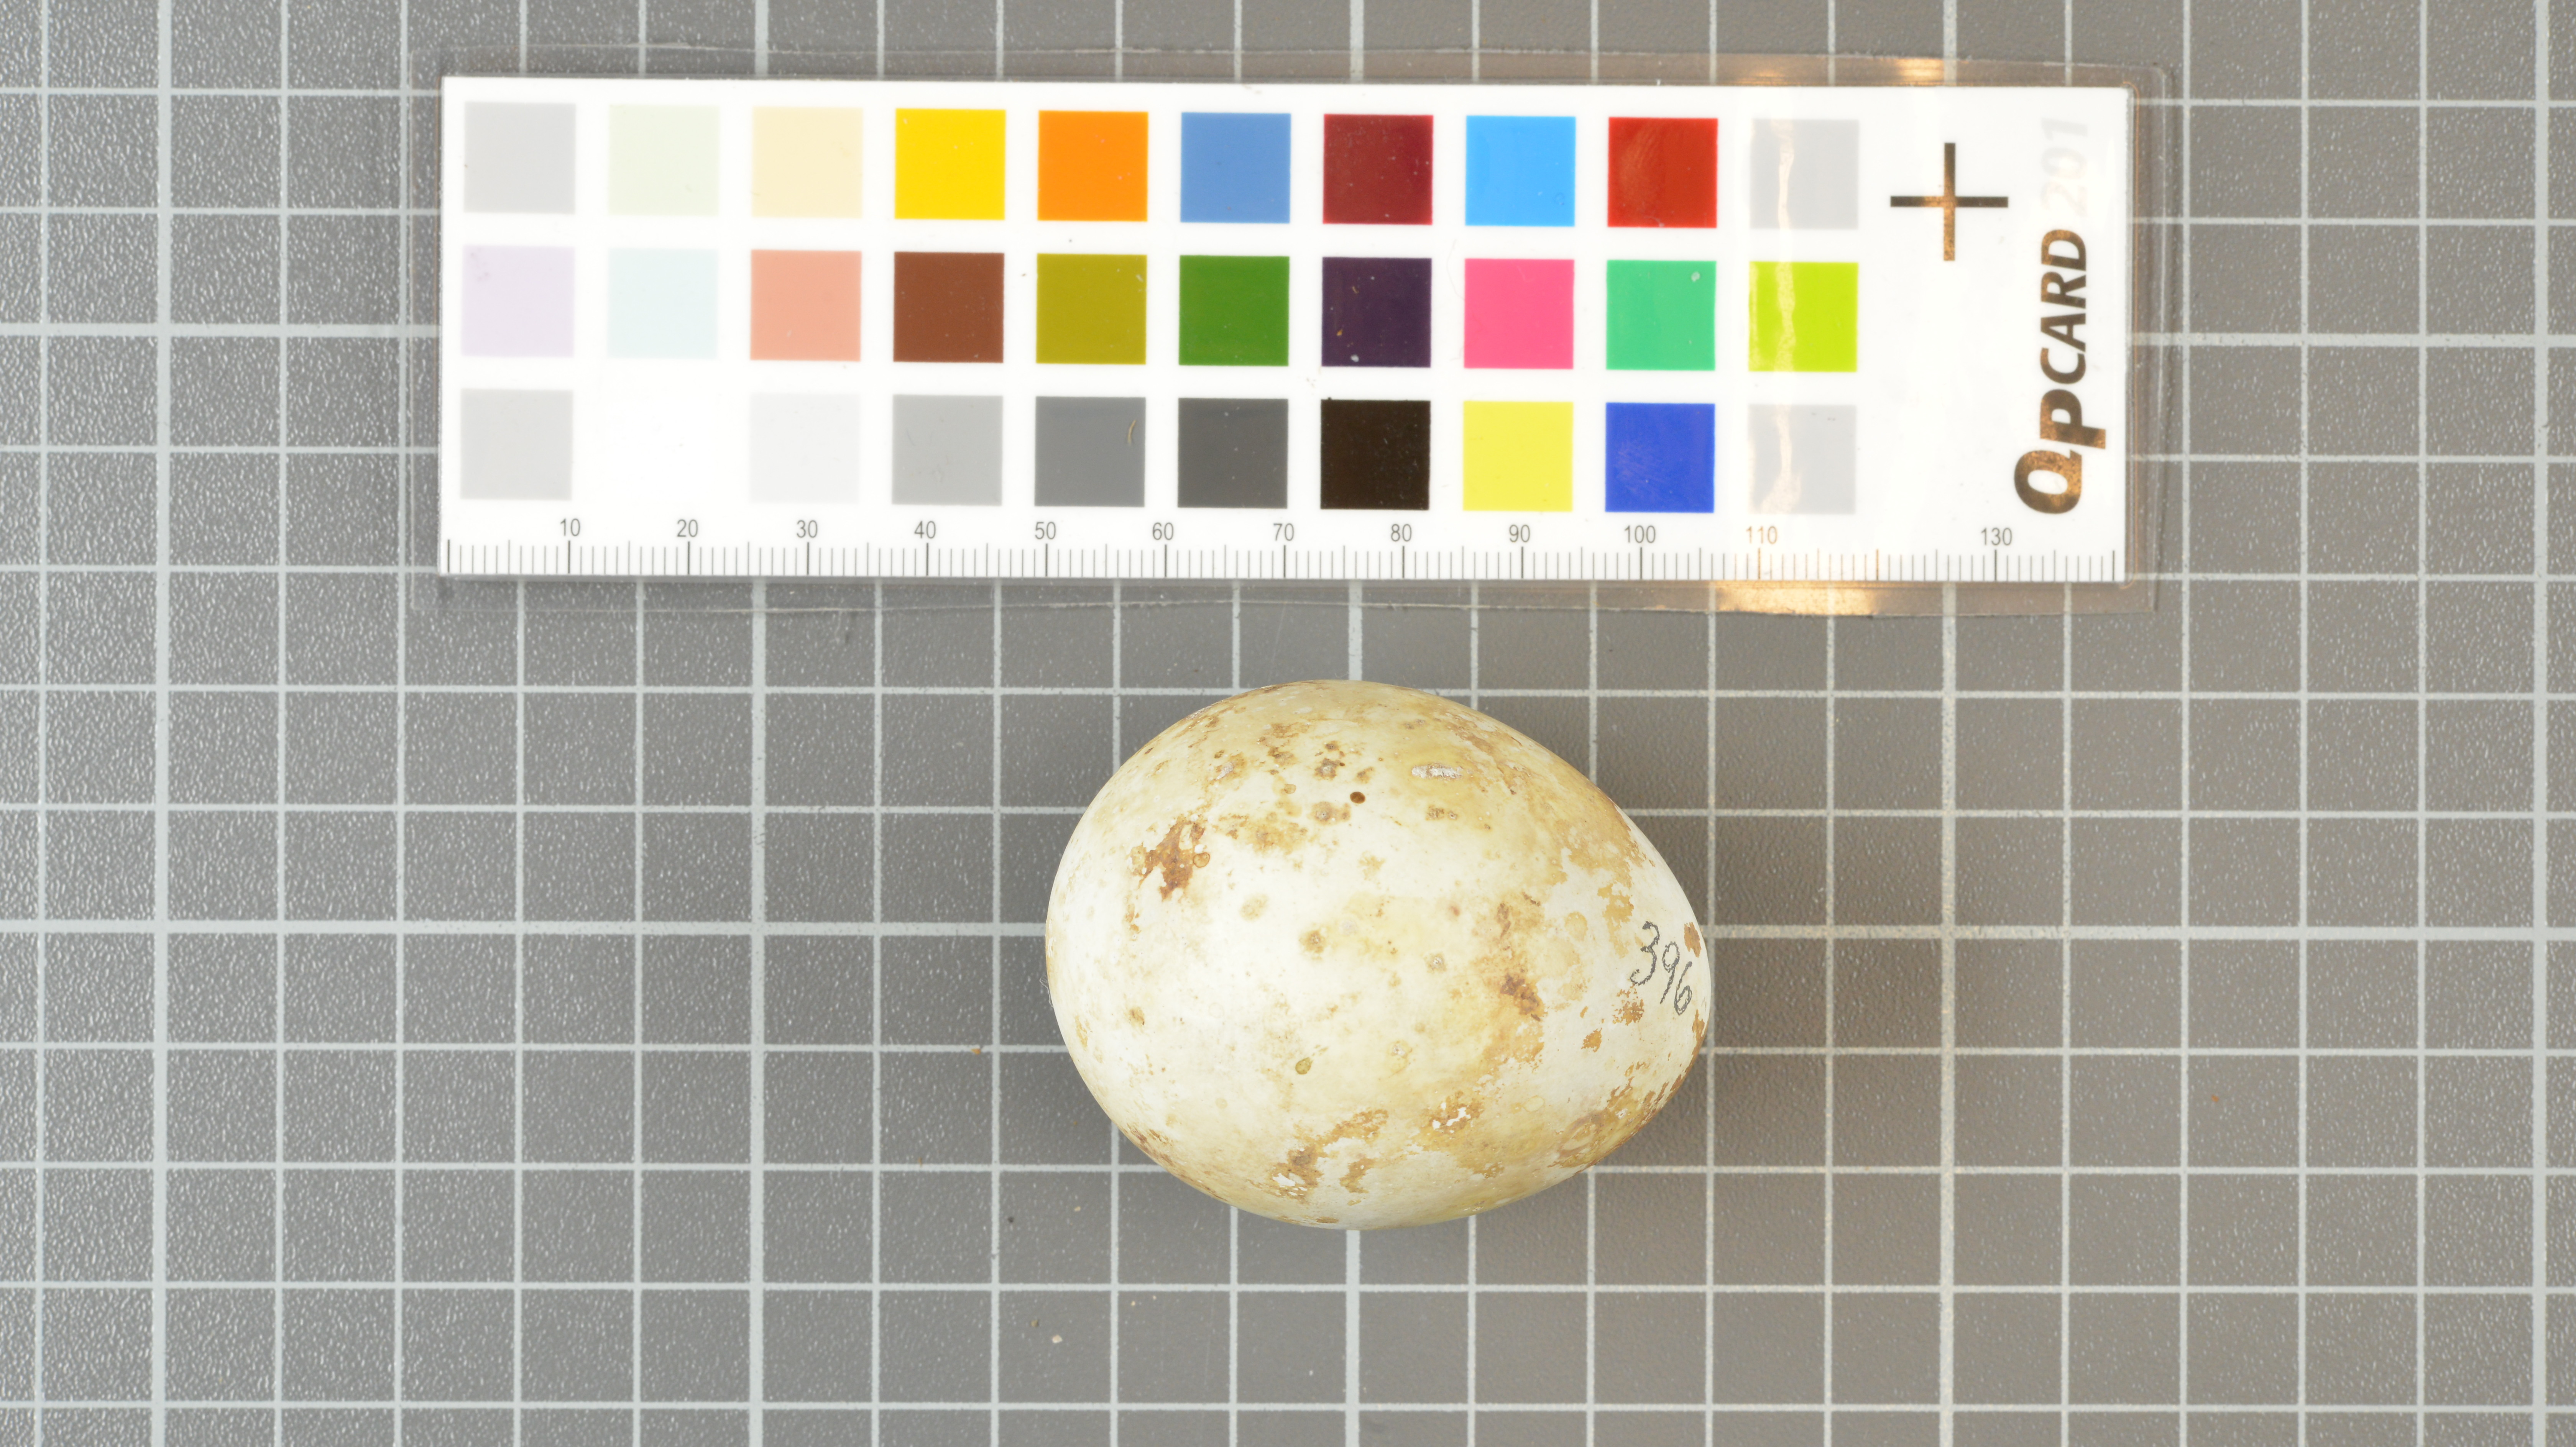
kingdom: Animalia
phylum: Chordata
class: Aves
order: Sphenisciformes
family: Spheniscidae
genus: Eudyptes
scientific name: Eudyptes moseleyi
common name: Northern rockhopper penguin
